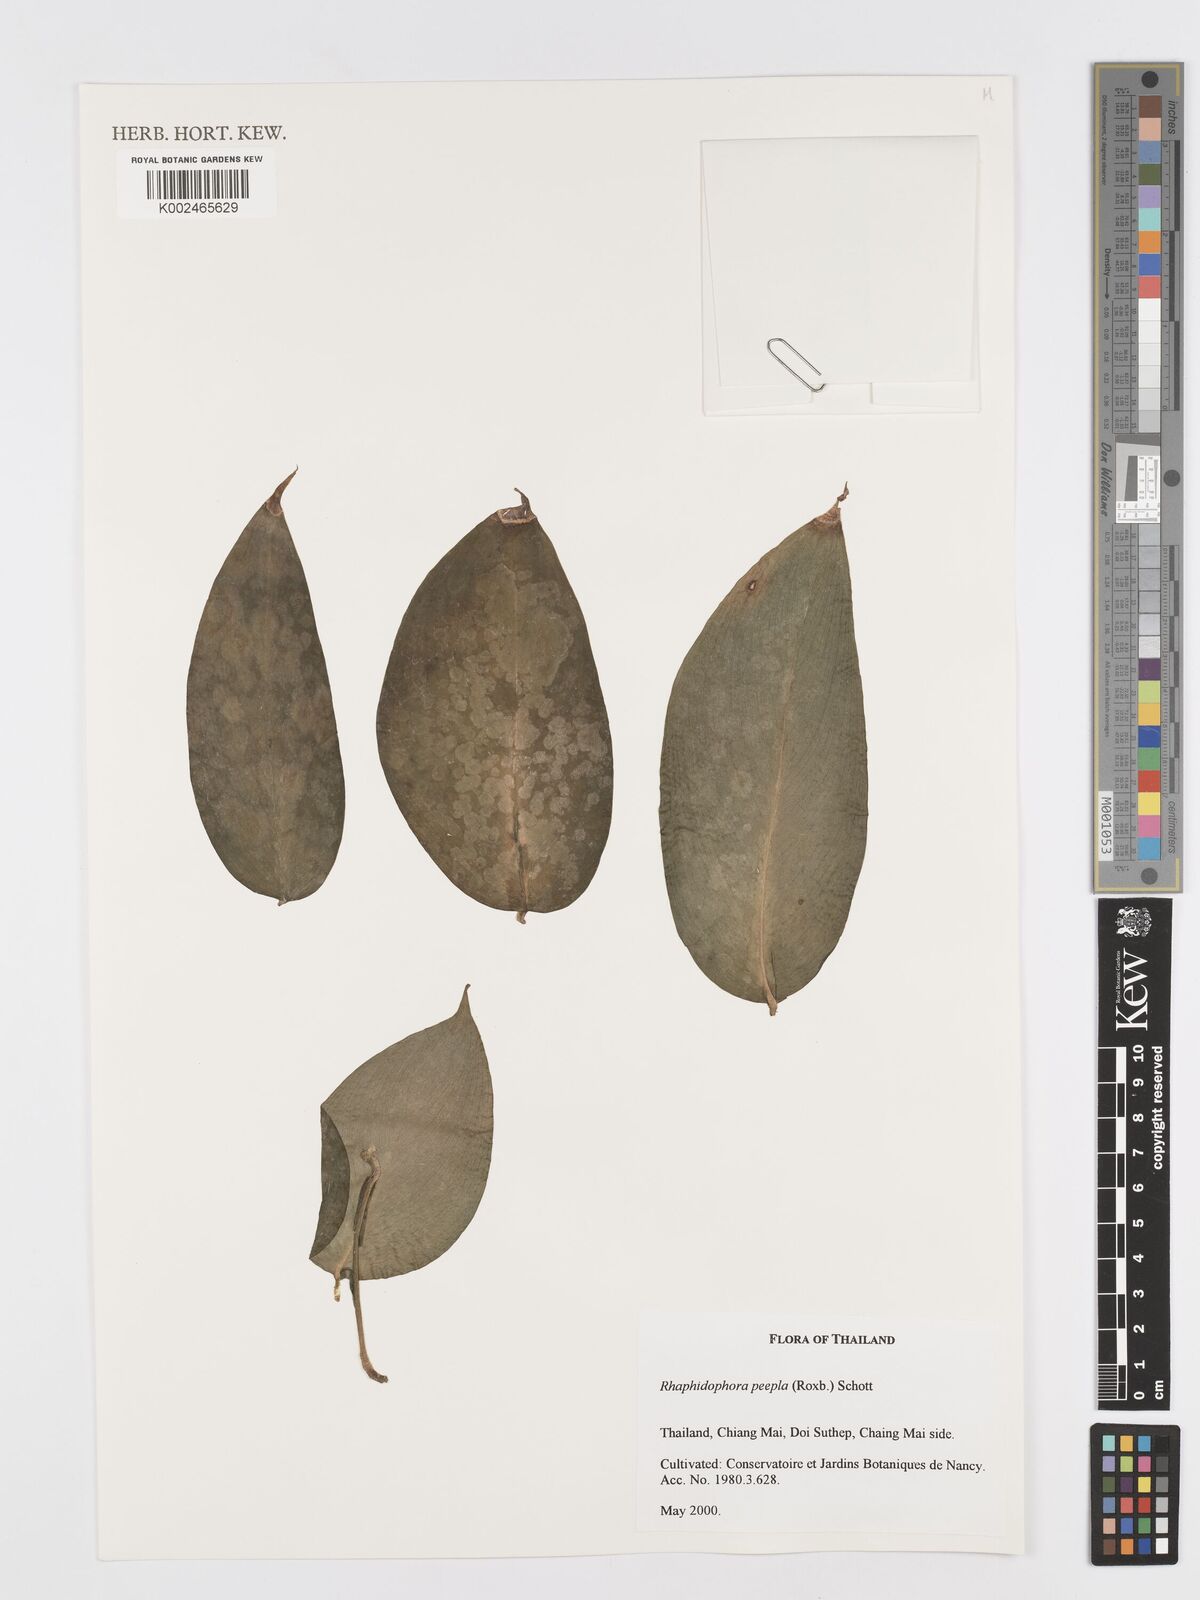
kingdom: Plantae
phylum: Tracheophyta
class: Liliopsida
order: Alismatales
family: Araceae
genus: Rhaphidophora
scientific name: Rhaphidophora peepla
